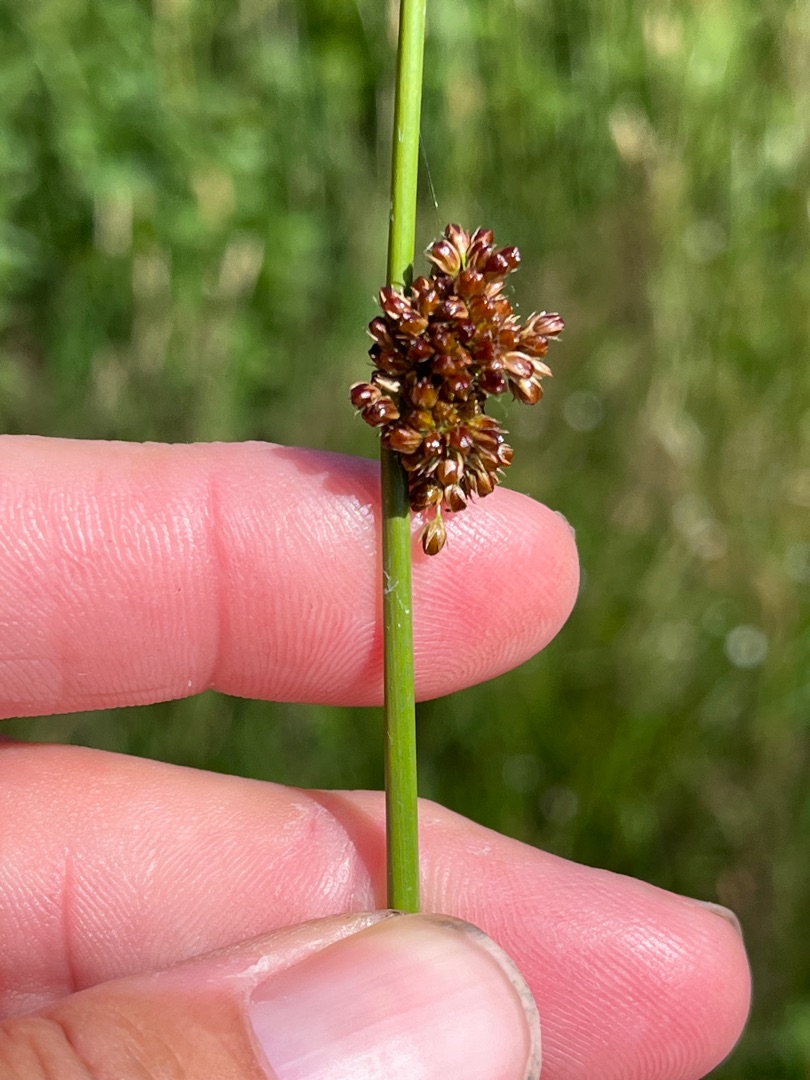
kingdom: Plantae
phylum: Tracheophyta
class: Liliopsida
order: Poales
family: Juncaceae
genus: Juncus
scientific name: Juncus effusus
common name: Lyse-siv
